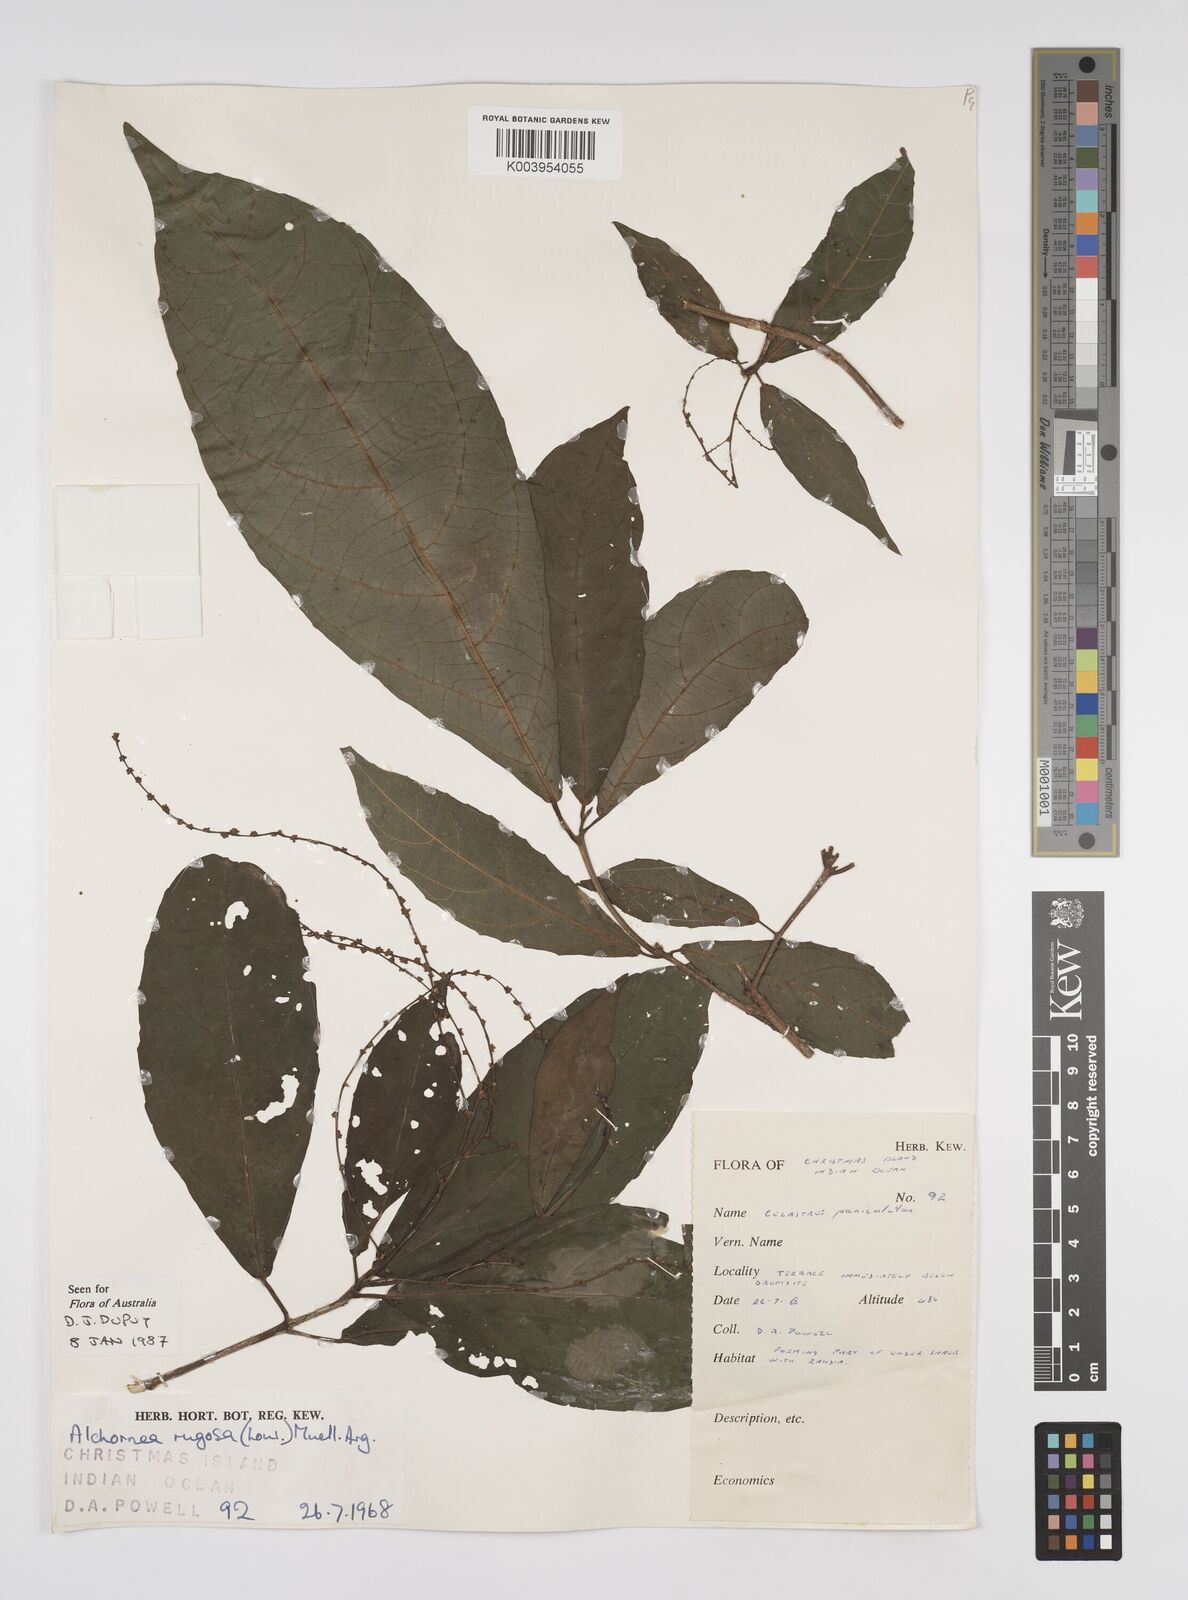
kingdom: Plantae
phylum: Tracheophyta
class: Magnoliopsida
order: Malpighiales
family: Euphorbiaceae
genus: Alchornea
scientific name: Alchornea rugosa
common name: Alchorntree
